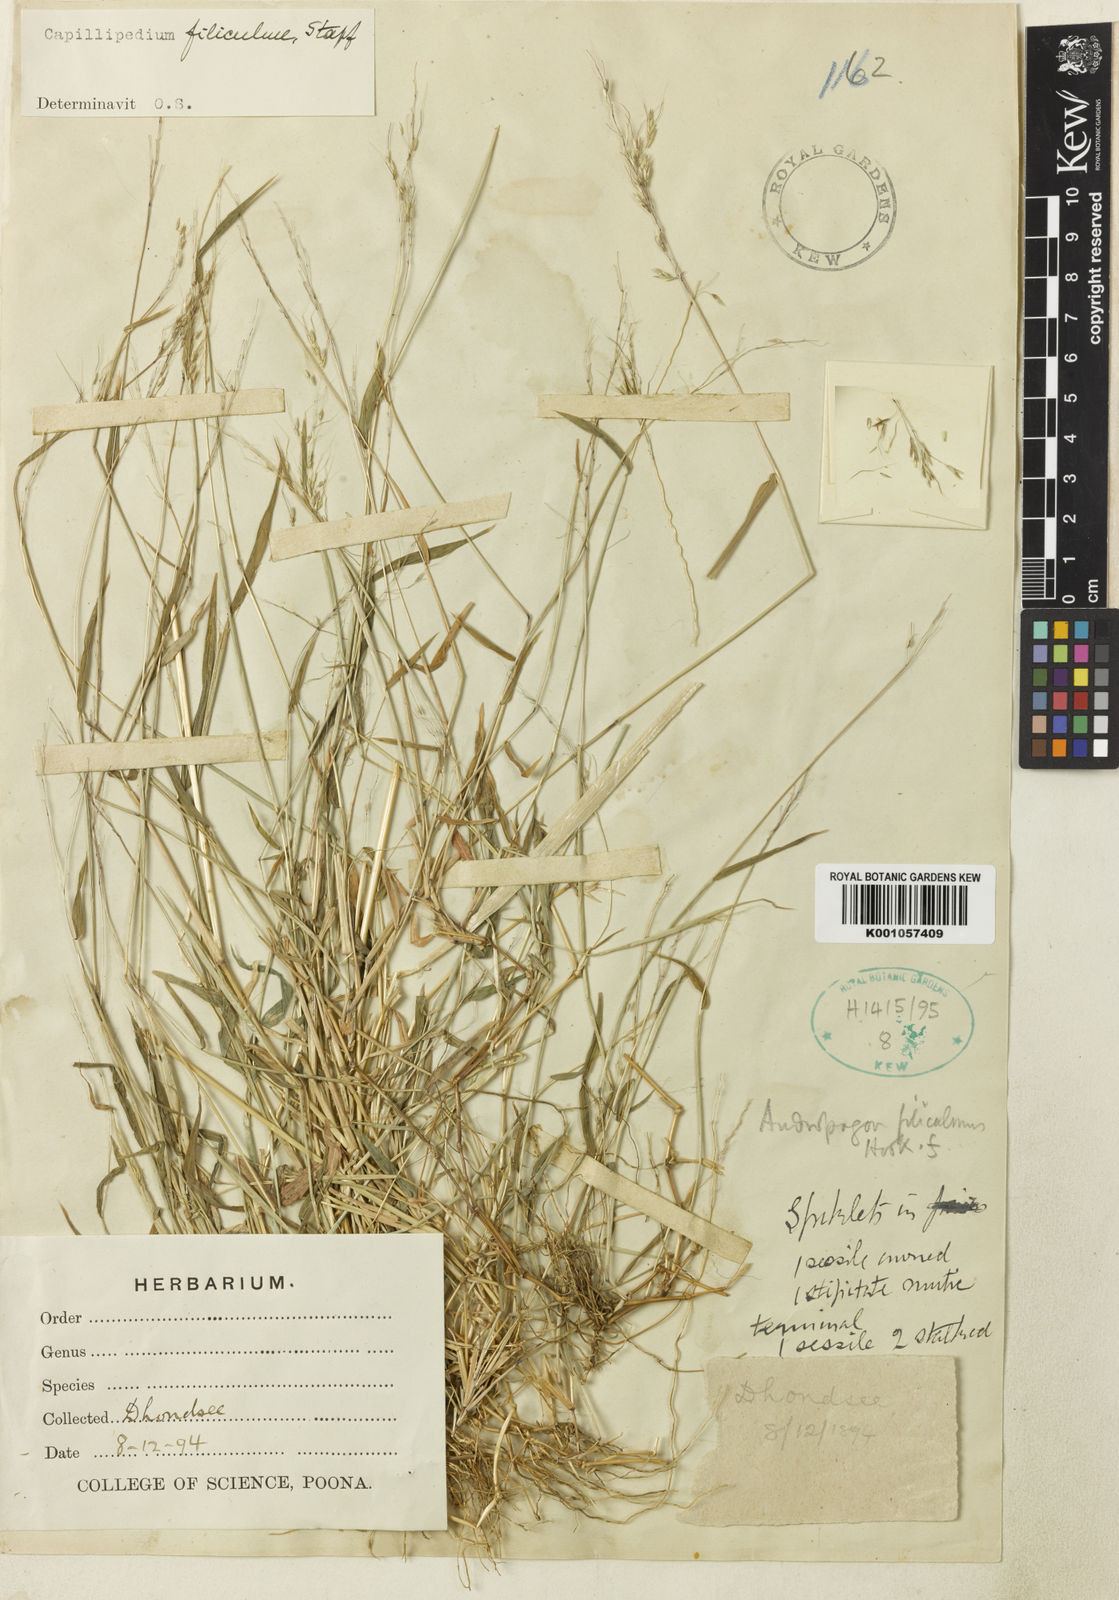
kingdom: Plantae
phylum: Tracheophyta
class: Liliopsida
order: Poales
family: Poaceae
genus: Capillipedium
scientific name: Capillipedium filiculme
